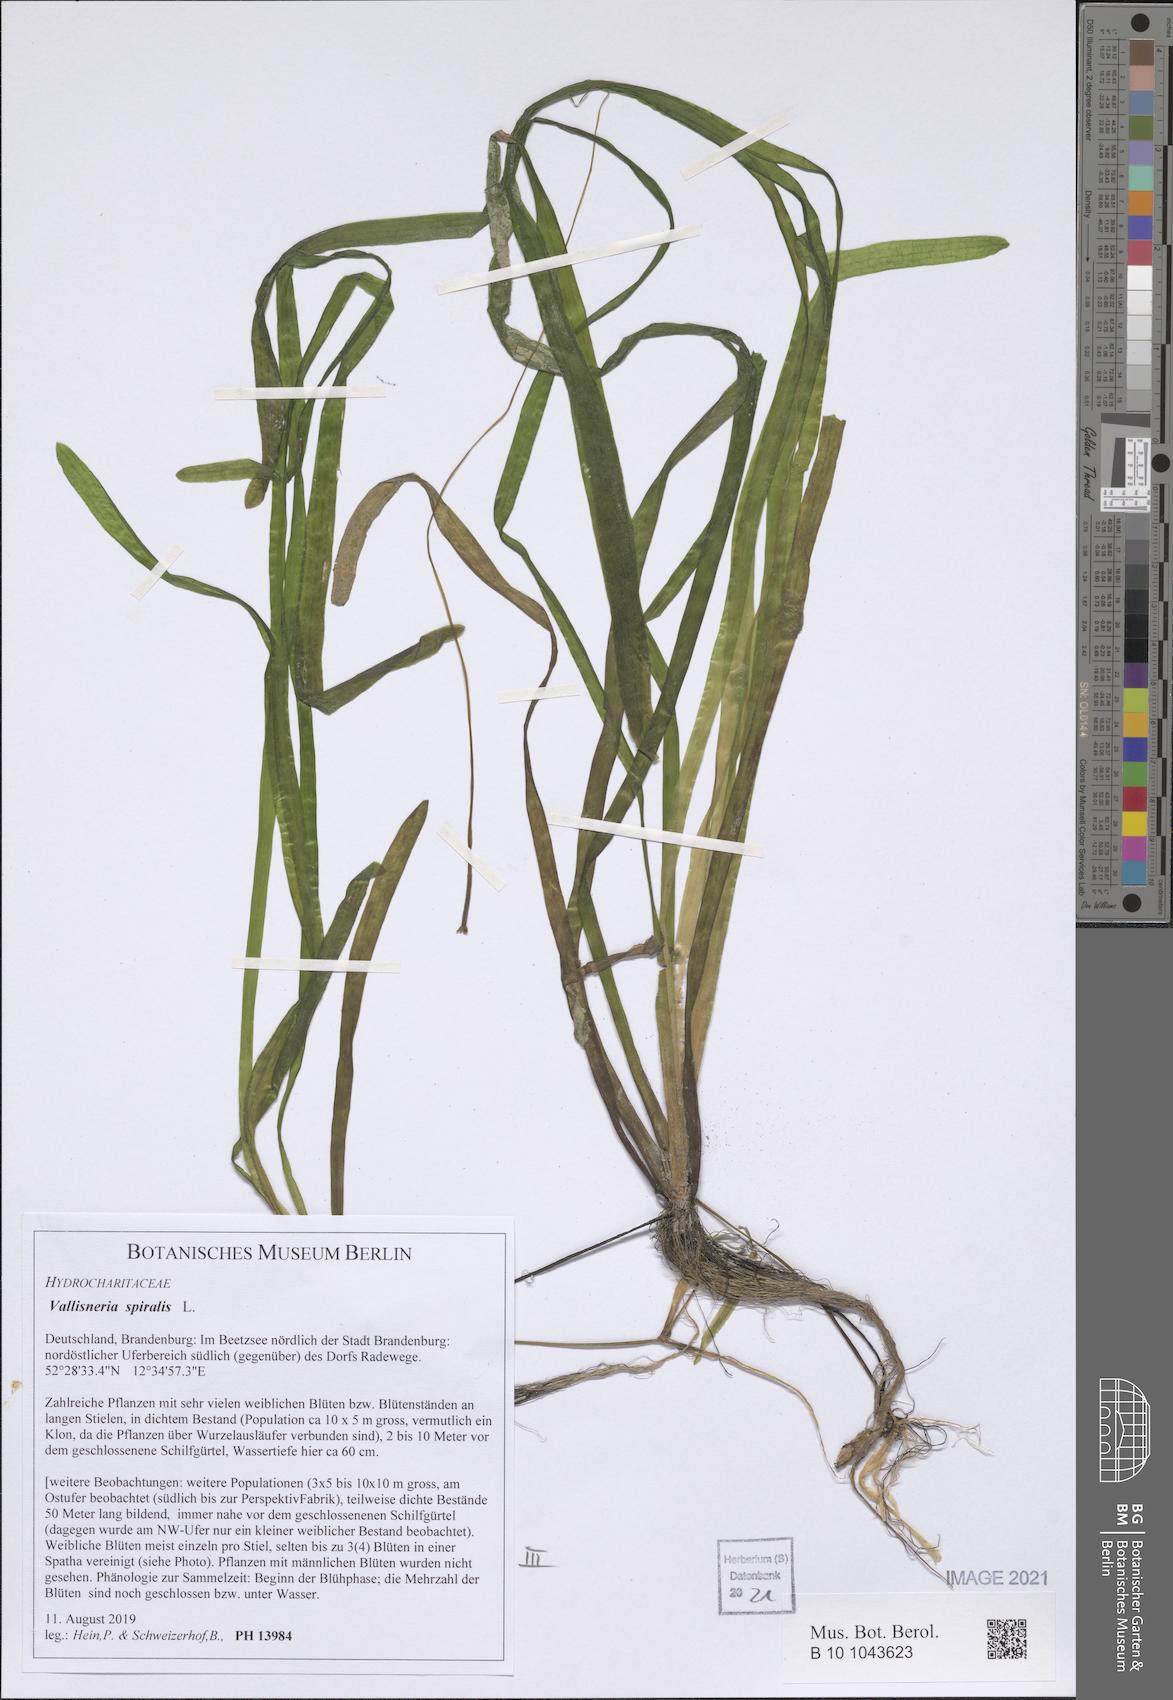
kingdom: Plantae
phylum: Tracheophyta
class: Liliopsida
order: Alismatales
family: Hydrocharitaceae
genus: Vallisneria
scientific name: Vallisneria spiralis
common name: Tapegrass
